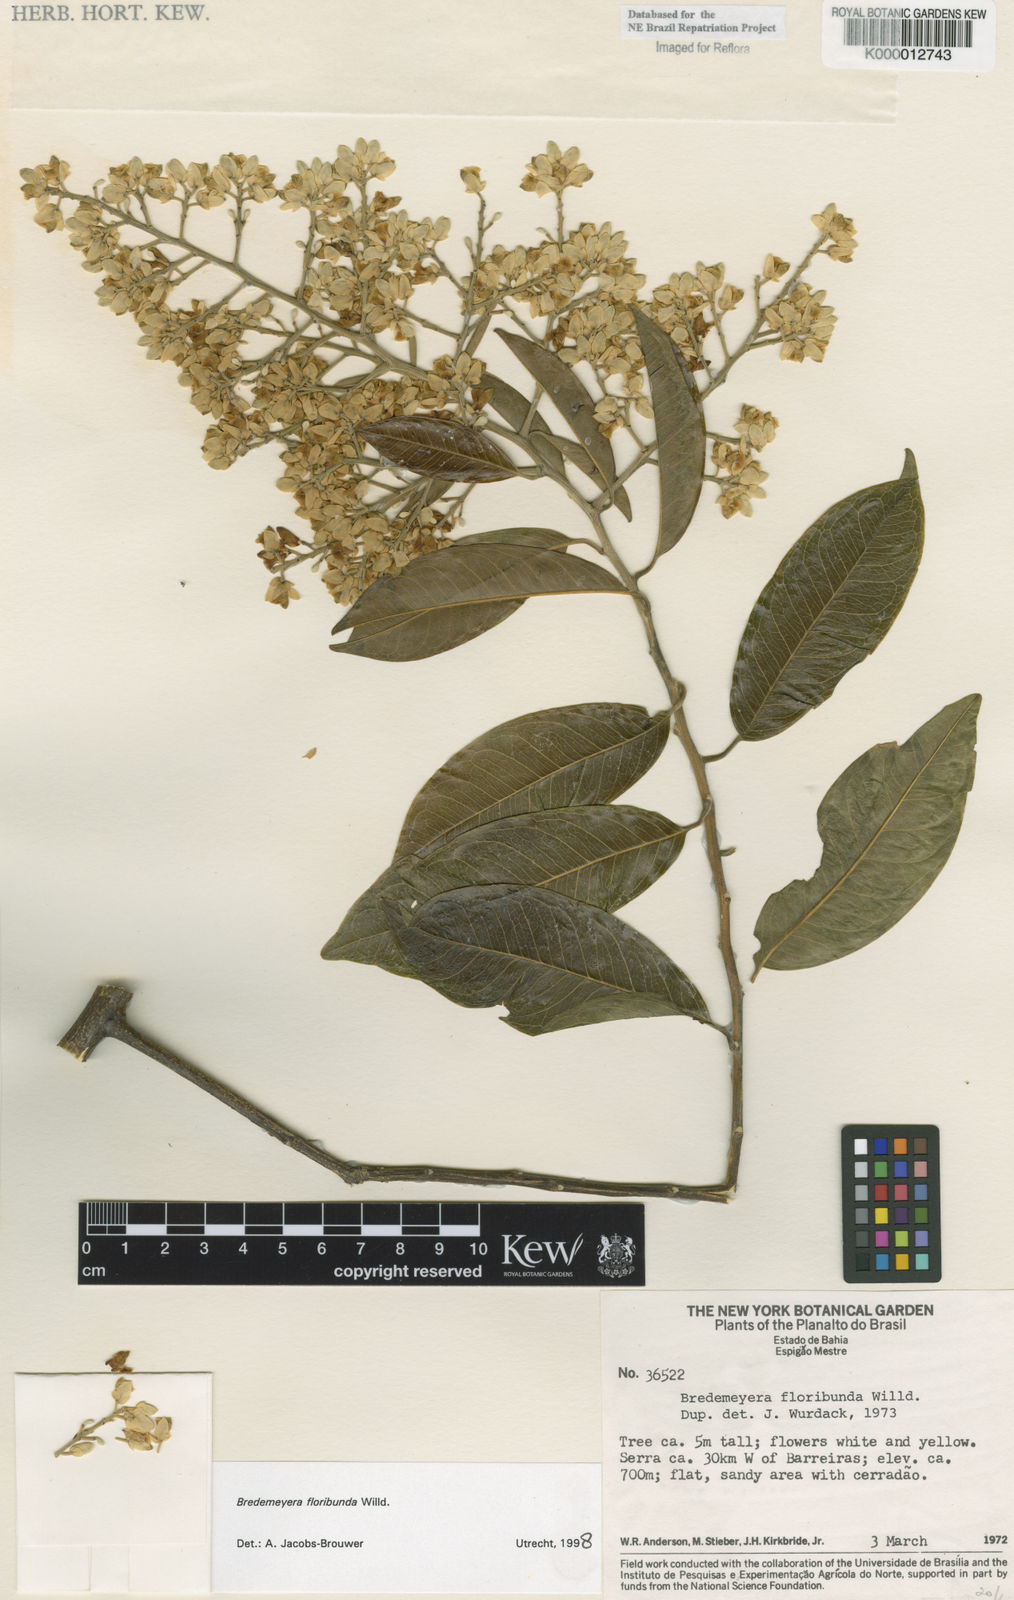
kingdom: Plantae
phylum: Tracheophyta
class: Magnoliopsida
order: Fabales
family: Polygalaceae
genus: Bredemeyera
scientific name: Bredemeyera floribunda
